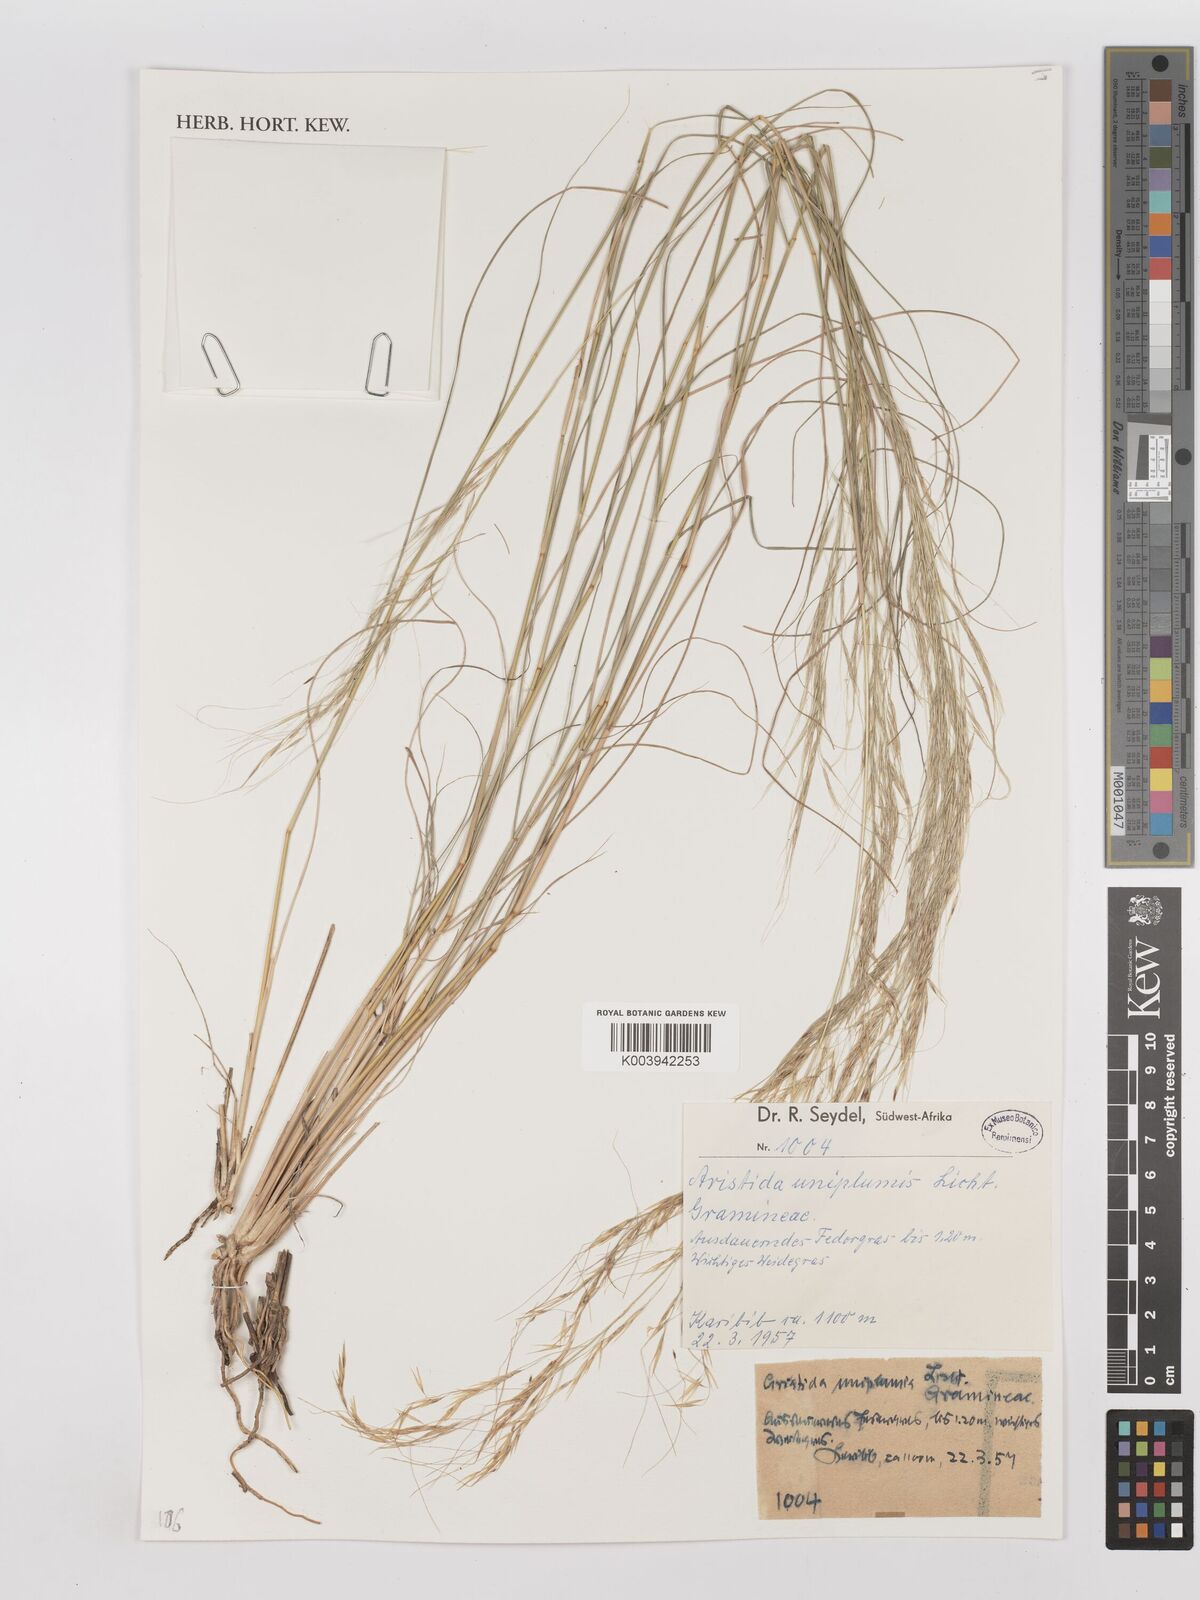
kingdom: Plantae
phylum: Tracheophyta
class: Liliopsida
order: Poales
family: Poaceae
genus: Stipagrostis
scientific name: Stipagrostis uniplumis
